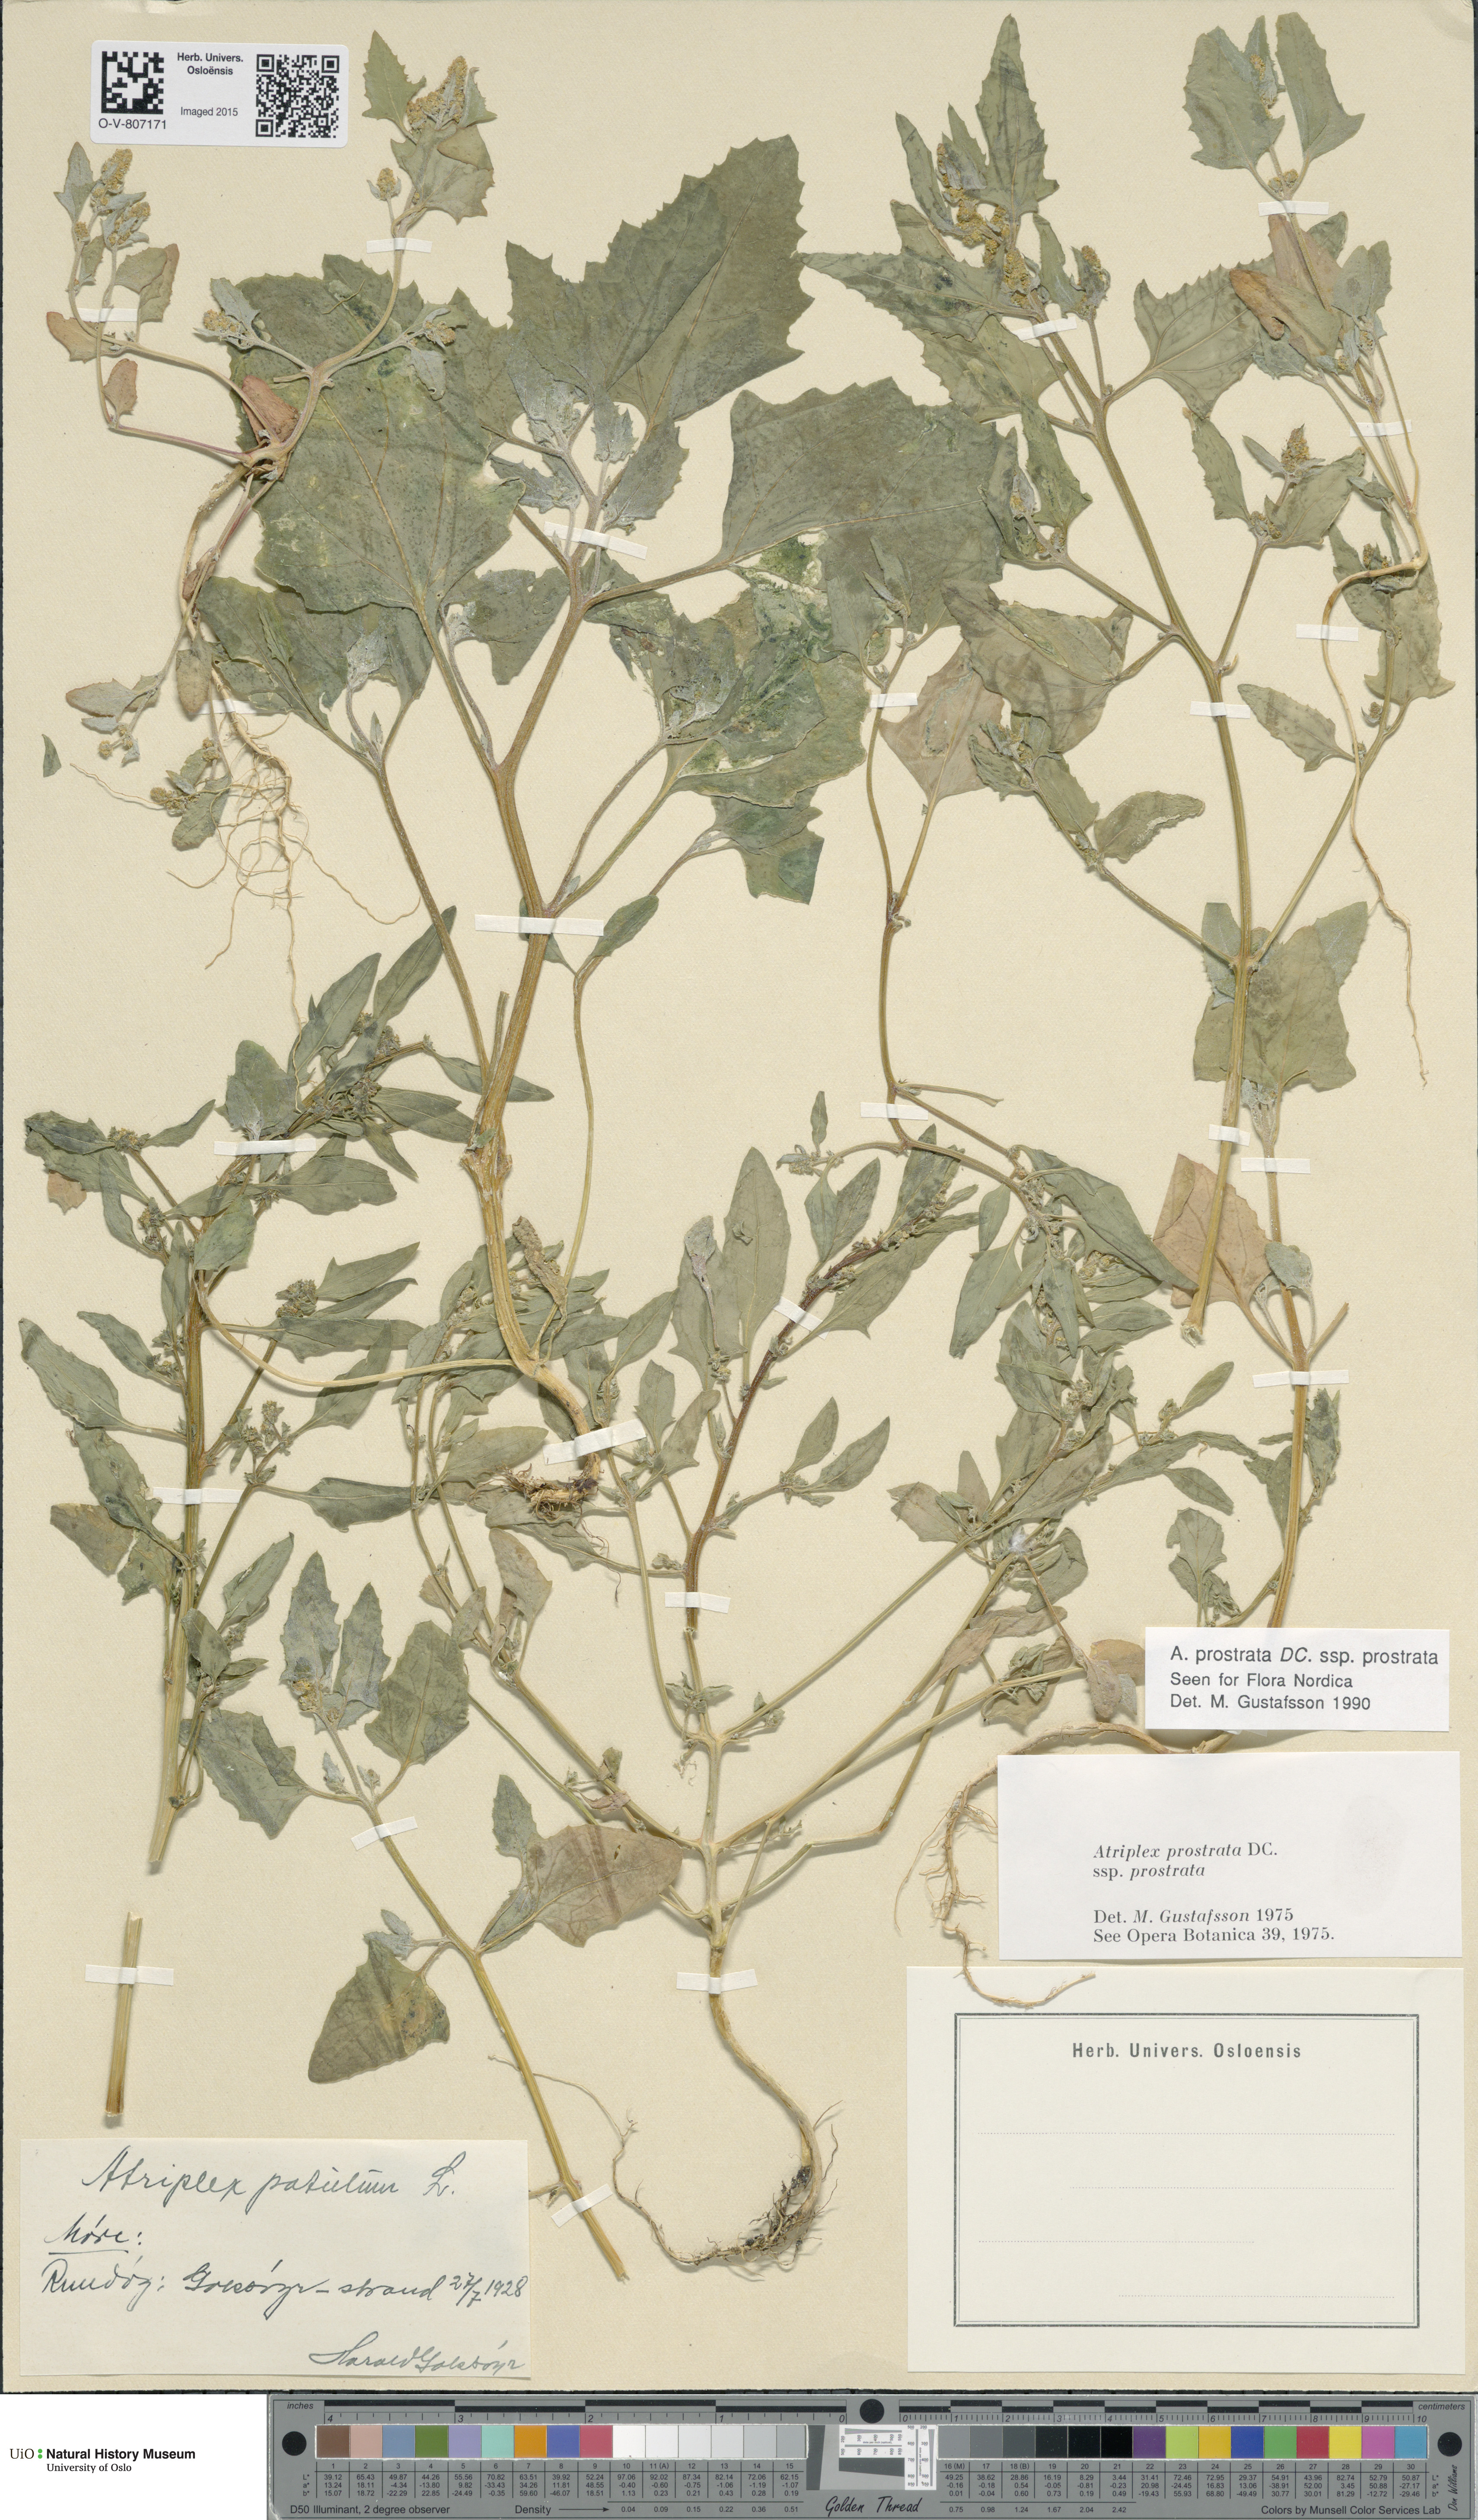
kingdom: Plantae
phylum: Tracheophyta
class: Magnoliopsida
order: Caryophyllales
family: Amaranthaceae
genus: Atriplex
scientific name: Atriplex prostrata
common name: Spear-leaved orache
